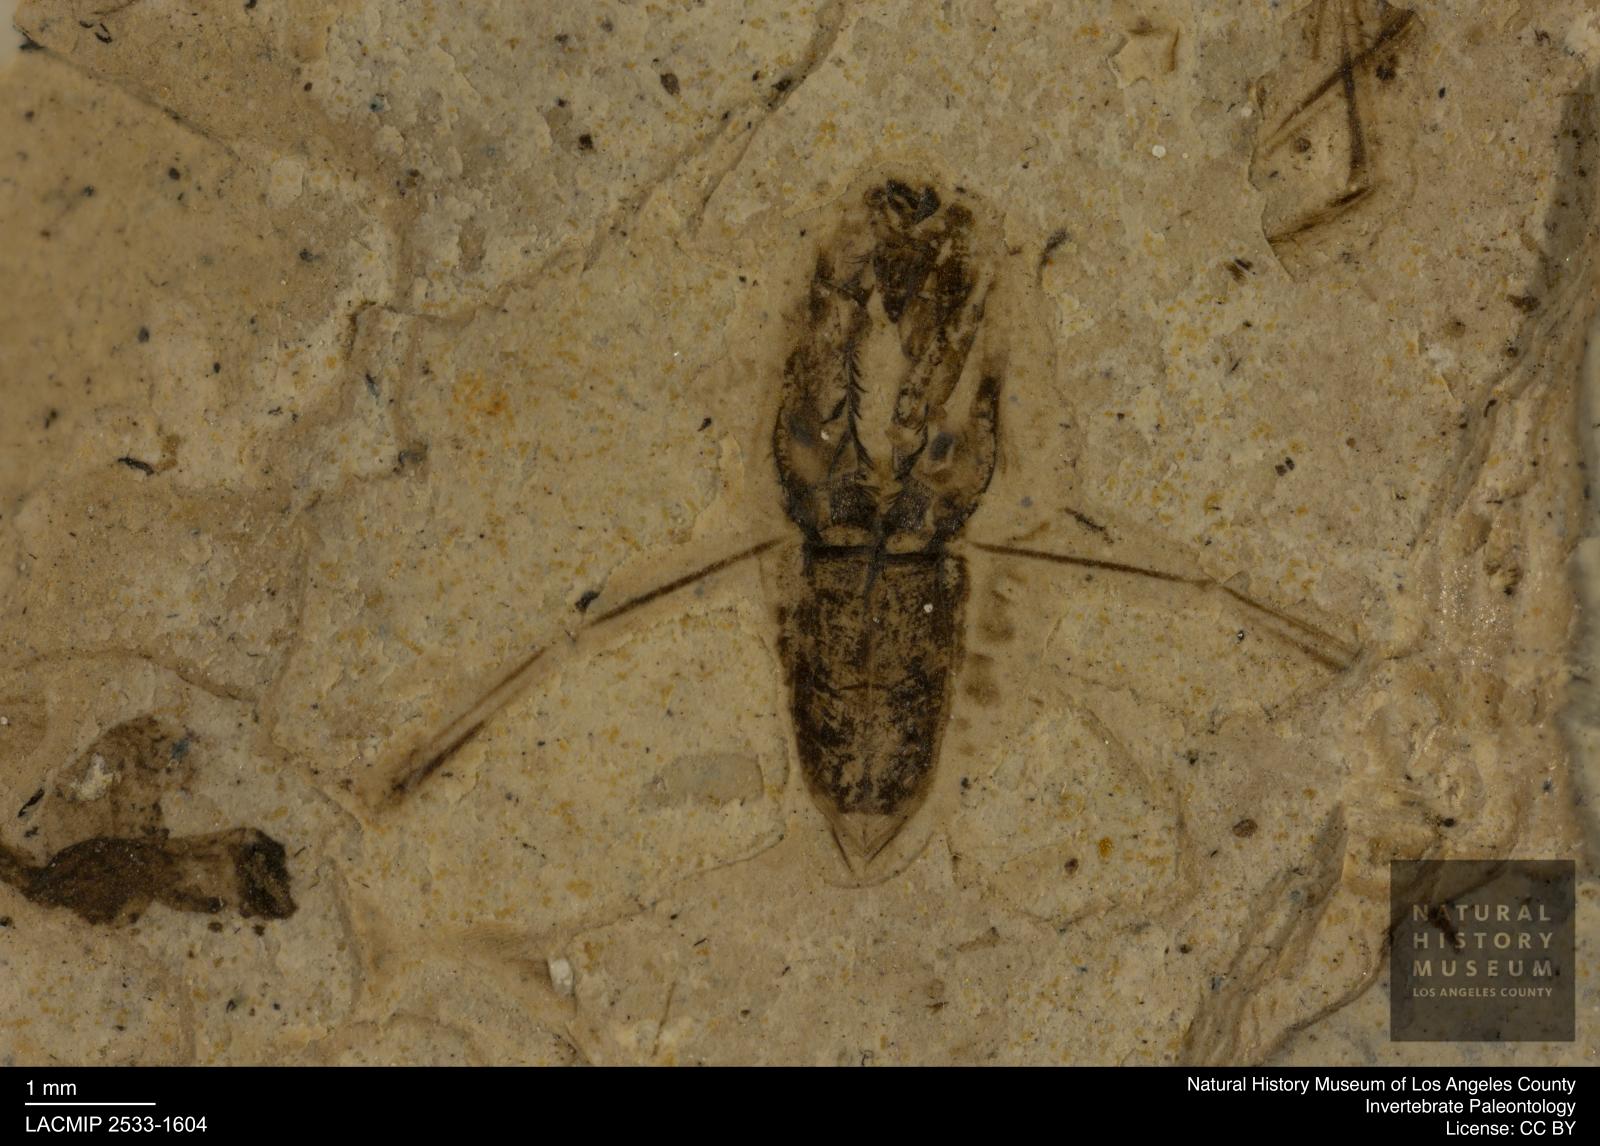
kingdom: Animalia
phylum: Arthropoda
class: Insecta
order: Hemiptera
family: Notonectidae
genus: Notonecta
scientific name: Notonecta
